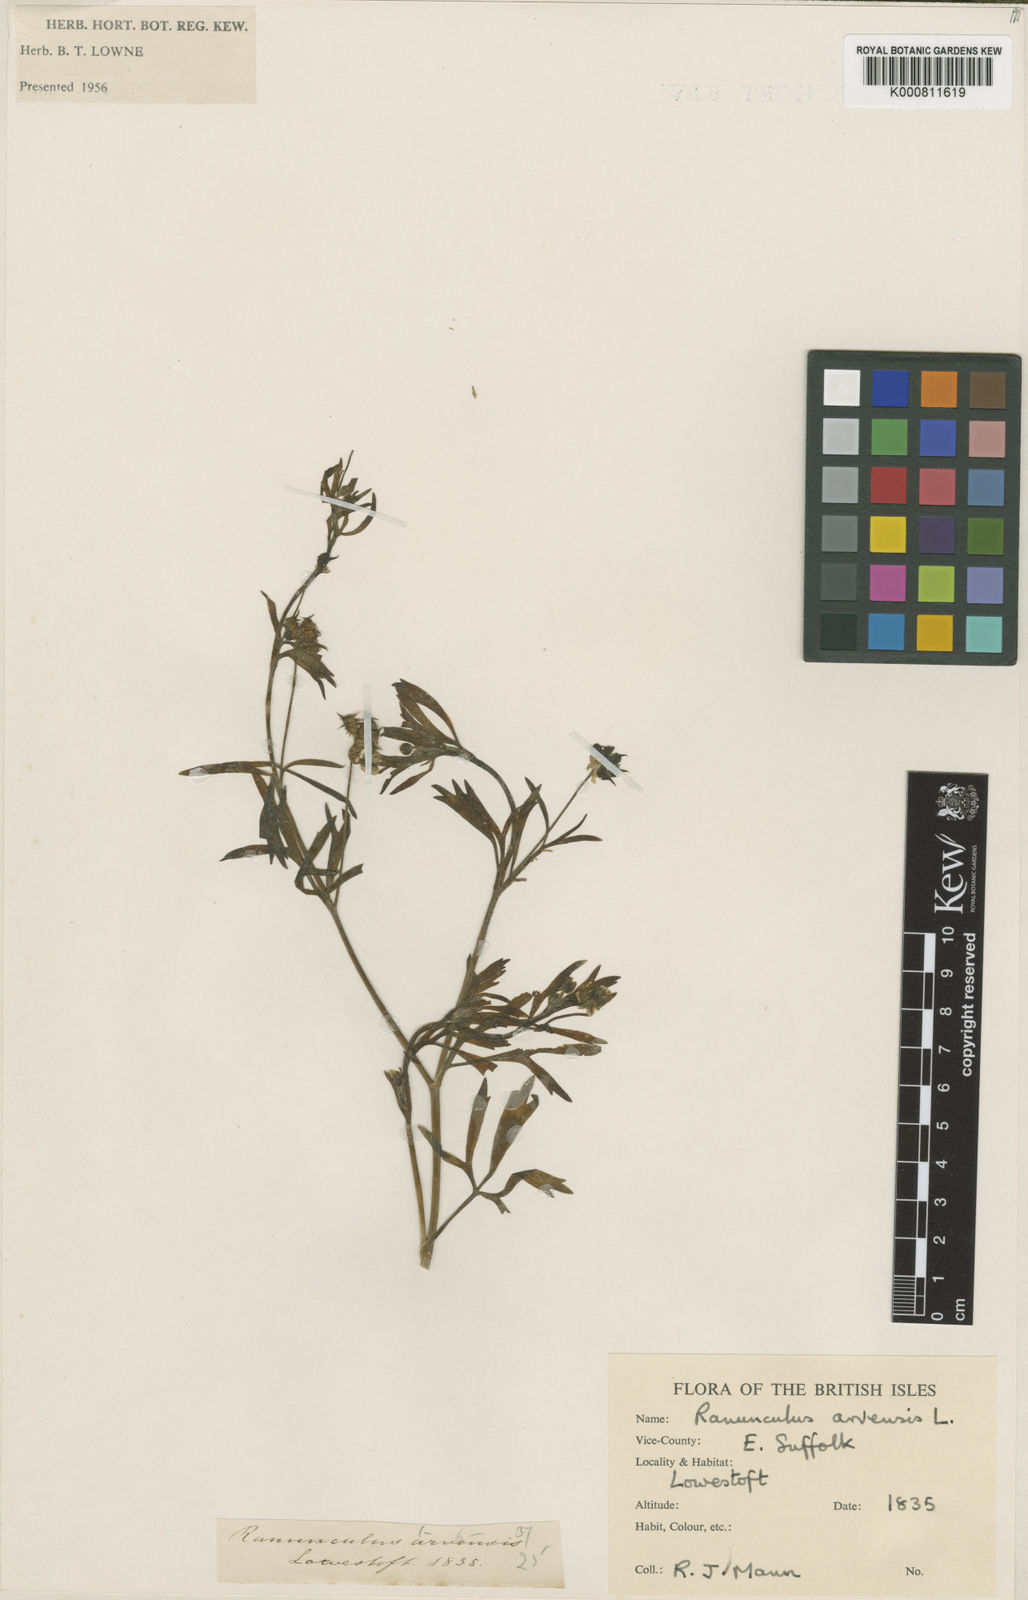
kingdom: Plantae
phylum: Tracheophyta
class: Magnoliopsida
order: Ranunculales
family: Ranunculaceae
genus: Ranunculus
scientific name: Ranunculus arvensis
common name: Corn buttercup
